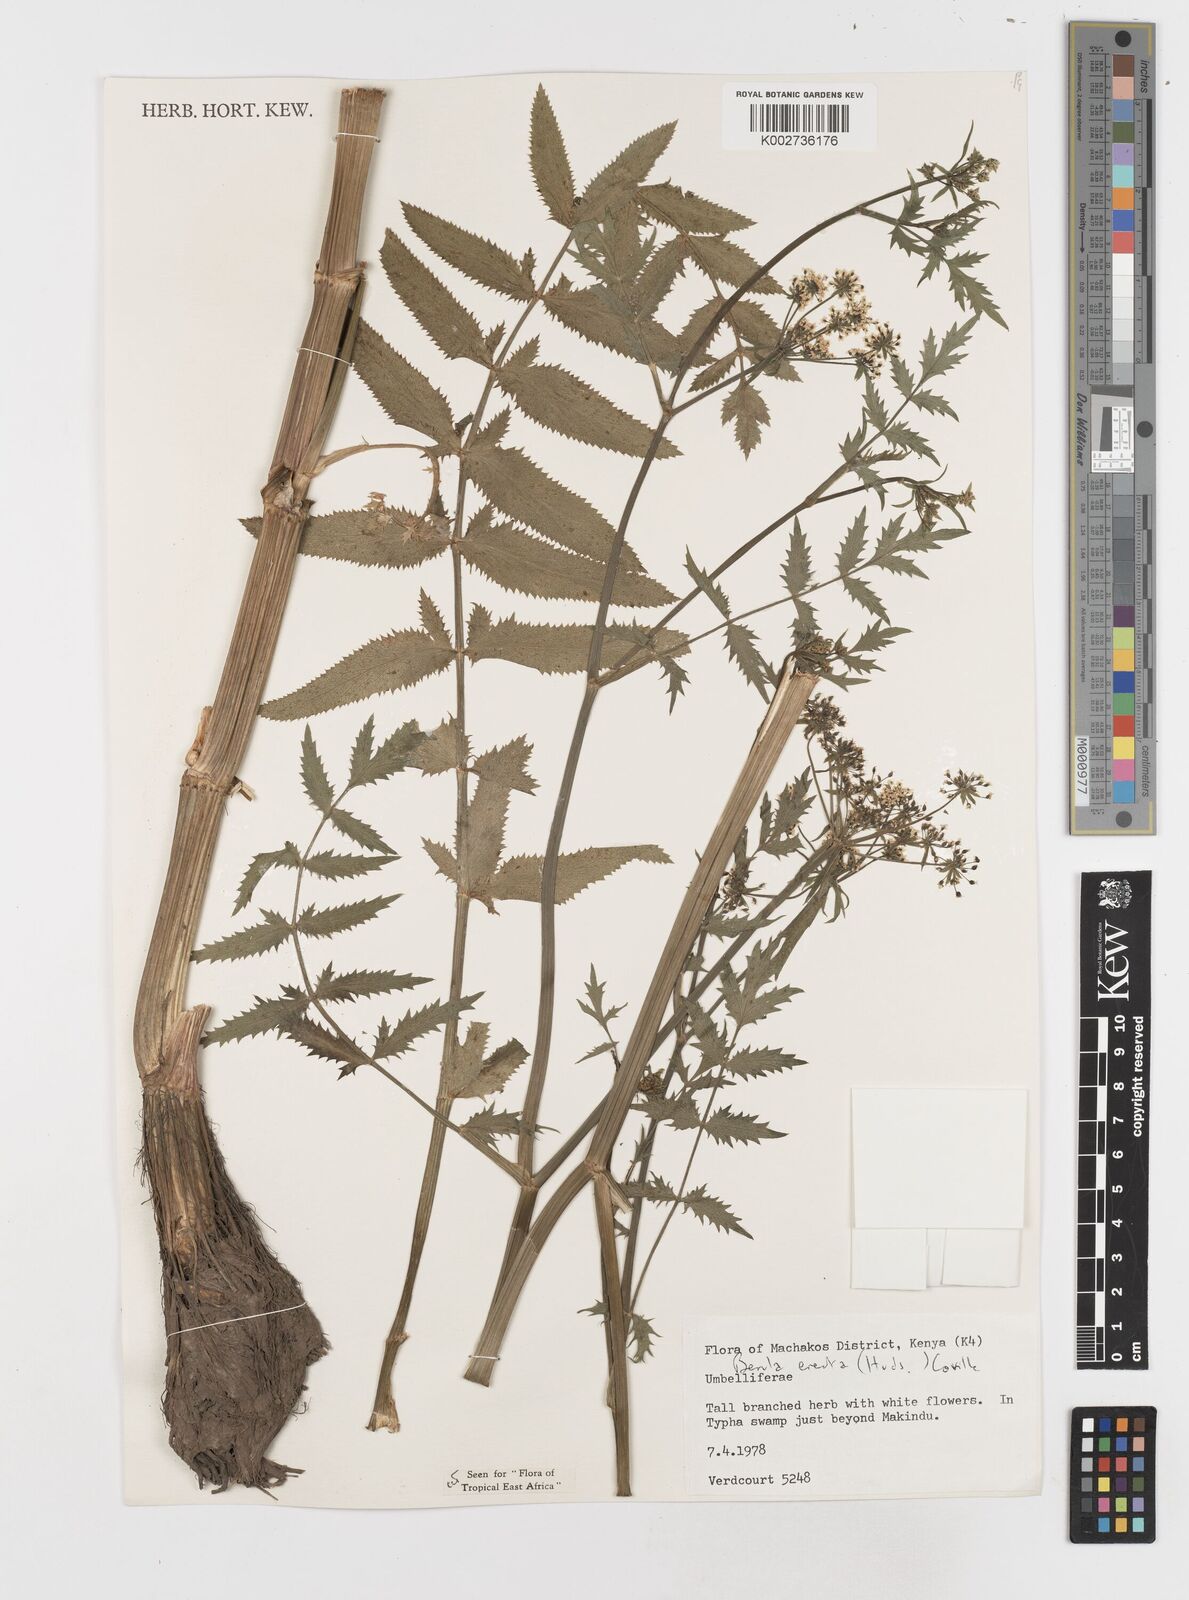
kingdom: Plantae
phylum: Tracheophyta
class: Magnoliopsida
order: Apiales
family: Apiaceae
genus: Berula
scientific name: Berula erecta
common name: Lesser water-parsnip
